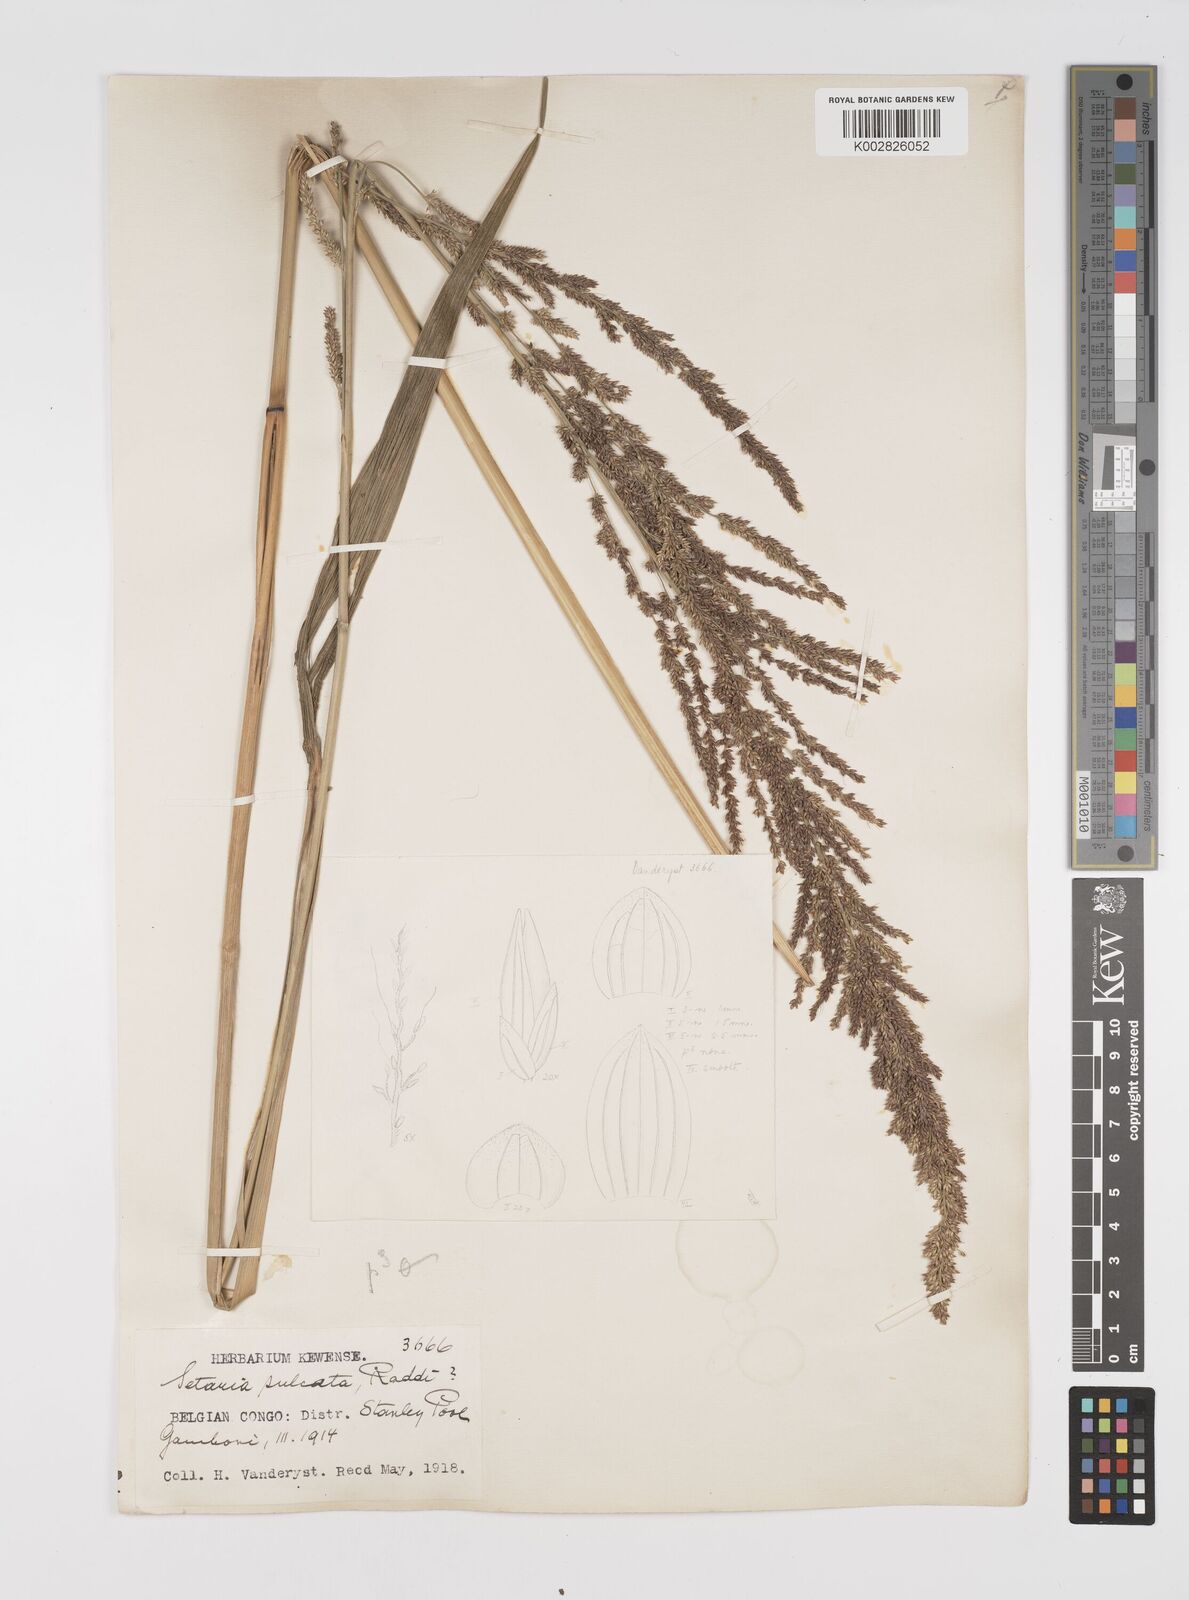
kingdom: Plantae
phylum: Tracheophyta
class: Liliopsida
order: Poales
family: Poaceae
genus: Setaria
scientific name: Setaria megaphylla
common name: Bigleaf bristlegrass
